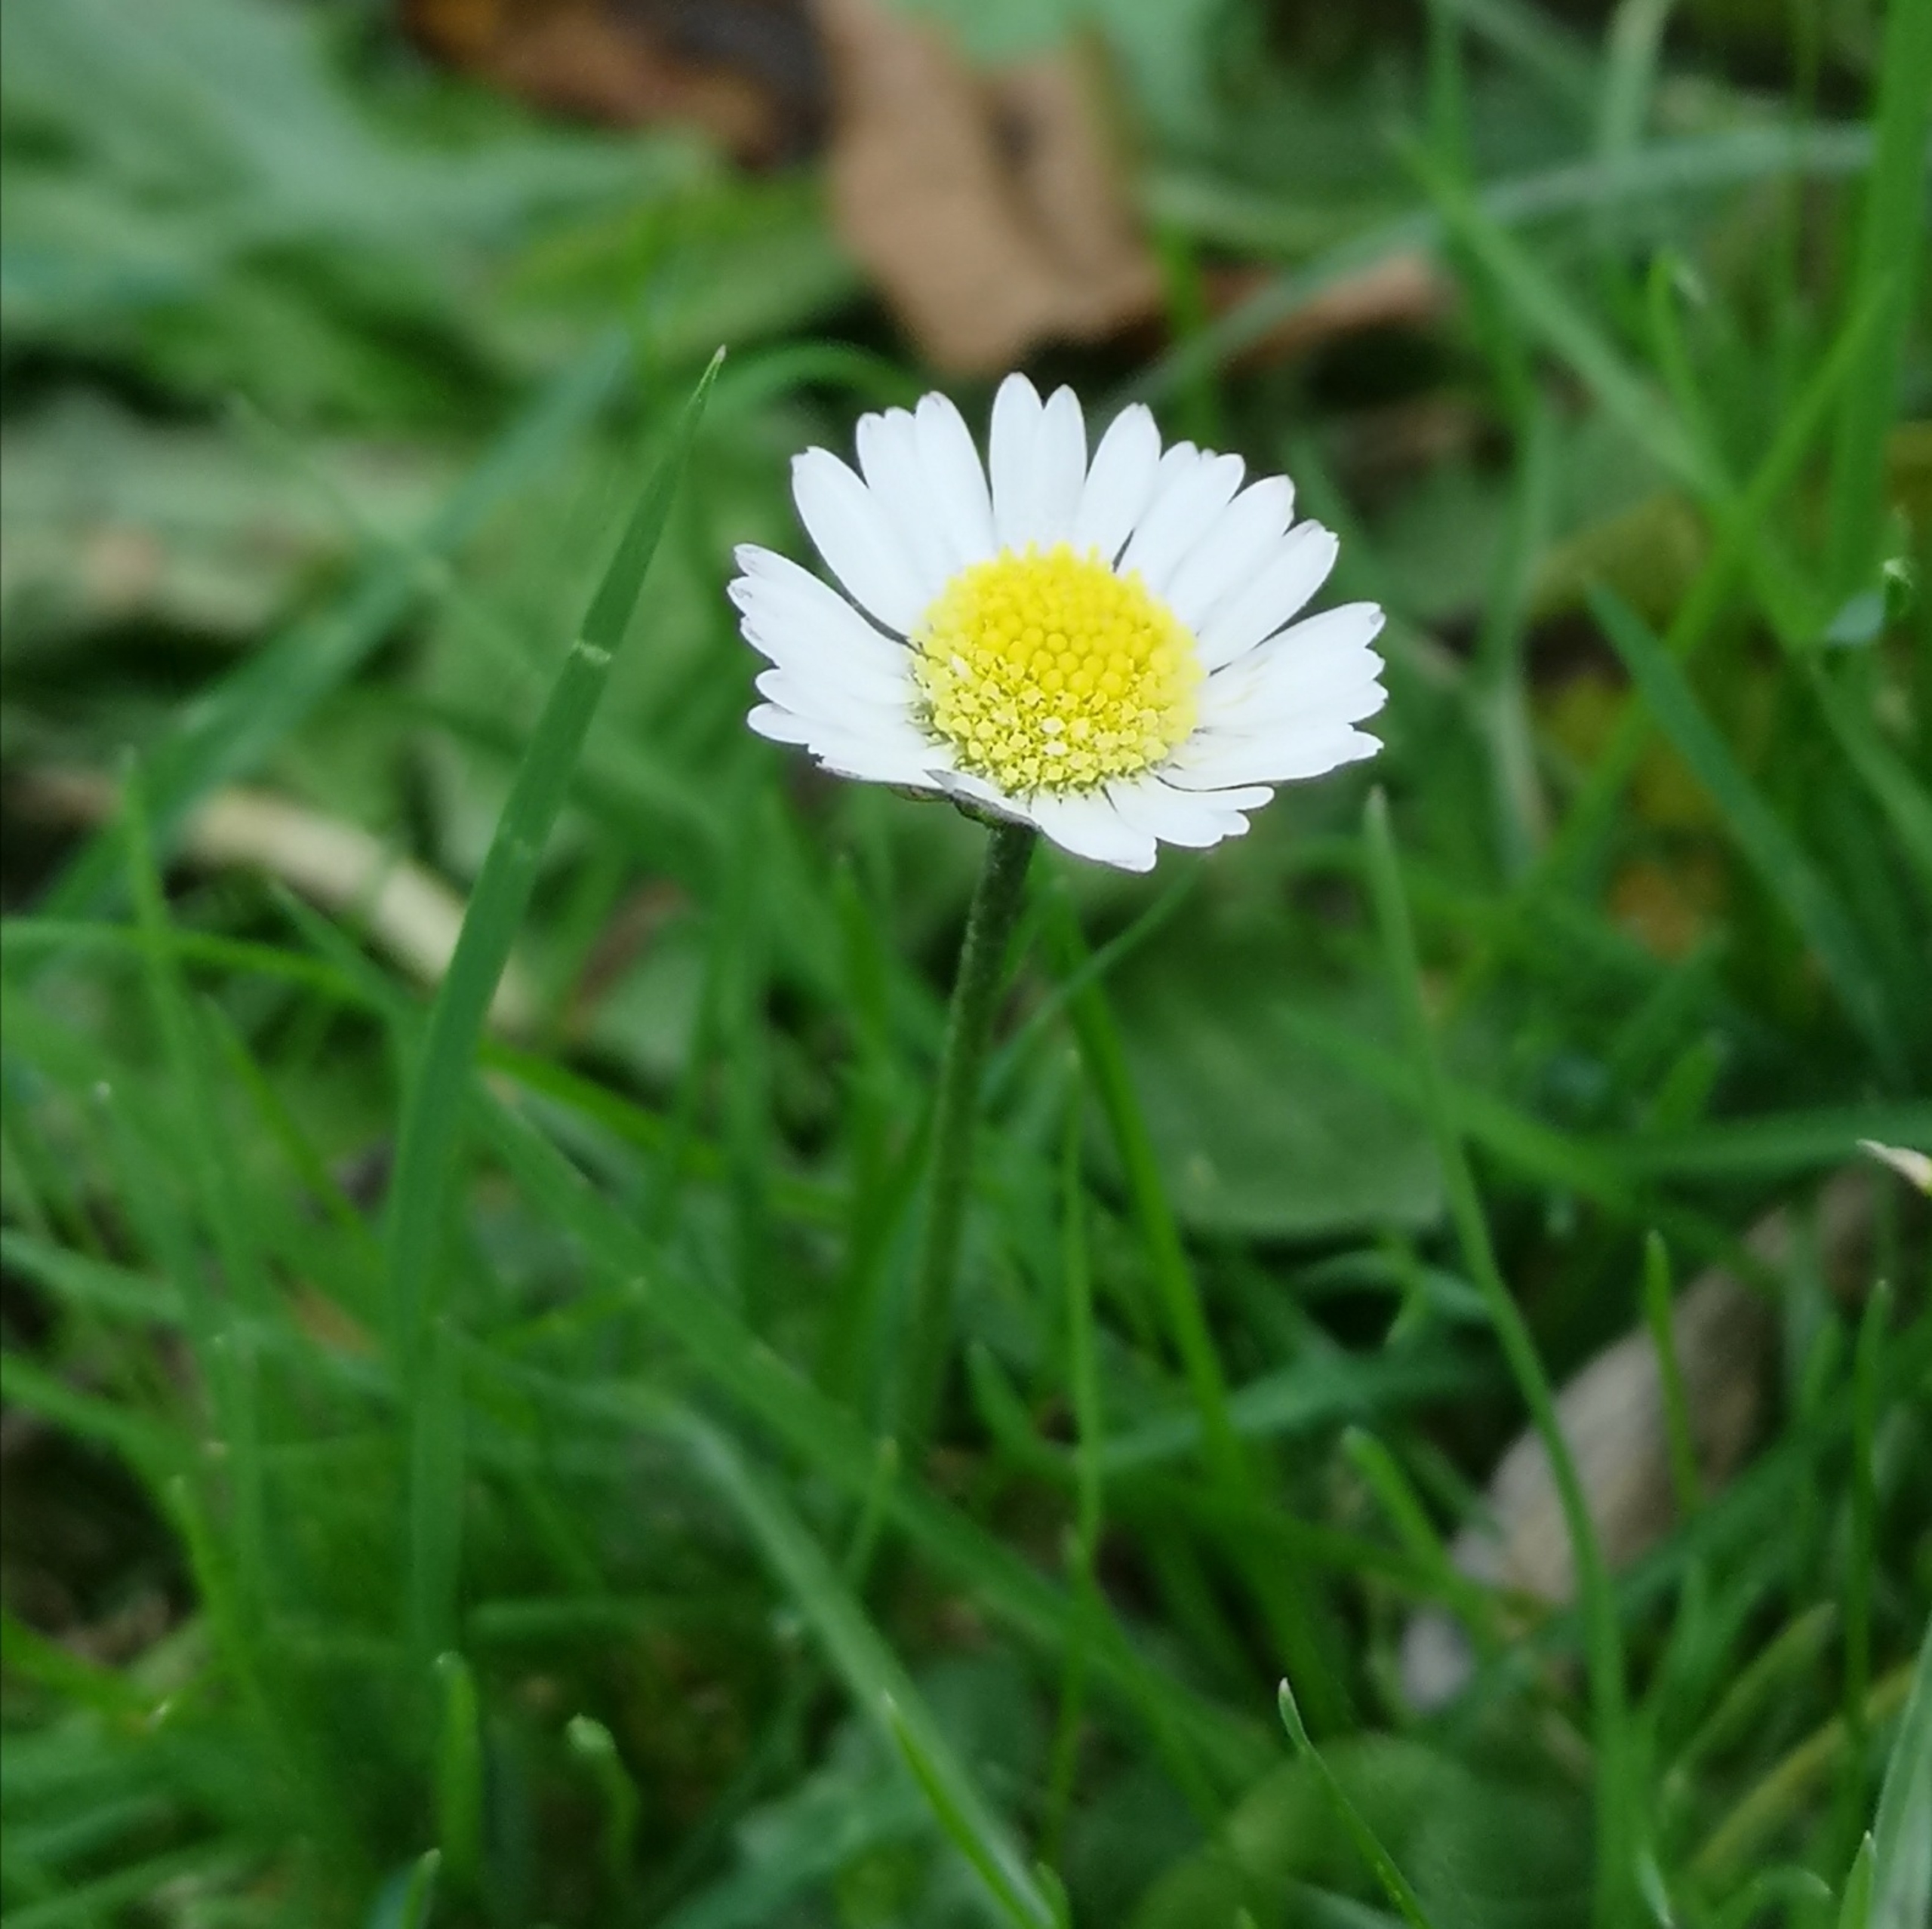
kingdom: Plantae
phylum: Tracheophyta
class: Magnoliopsida
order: Asterales
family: Asteraceae
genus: Bellis
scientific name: Bellis perennis
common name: Tusindfryd
